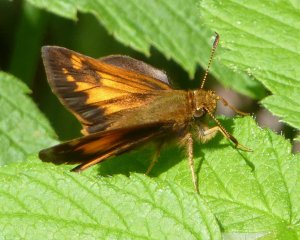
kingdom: Animalia
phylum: Arthropoda
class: Insecta
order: Lepidoptera
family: Hesperiidae
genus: Lon
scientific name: Lon hobomok
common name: Hobomok Skipper
